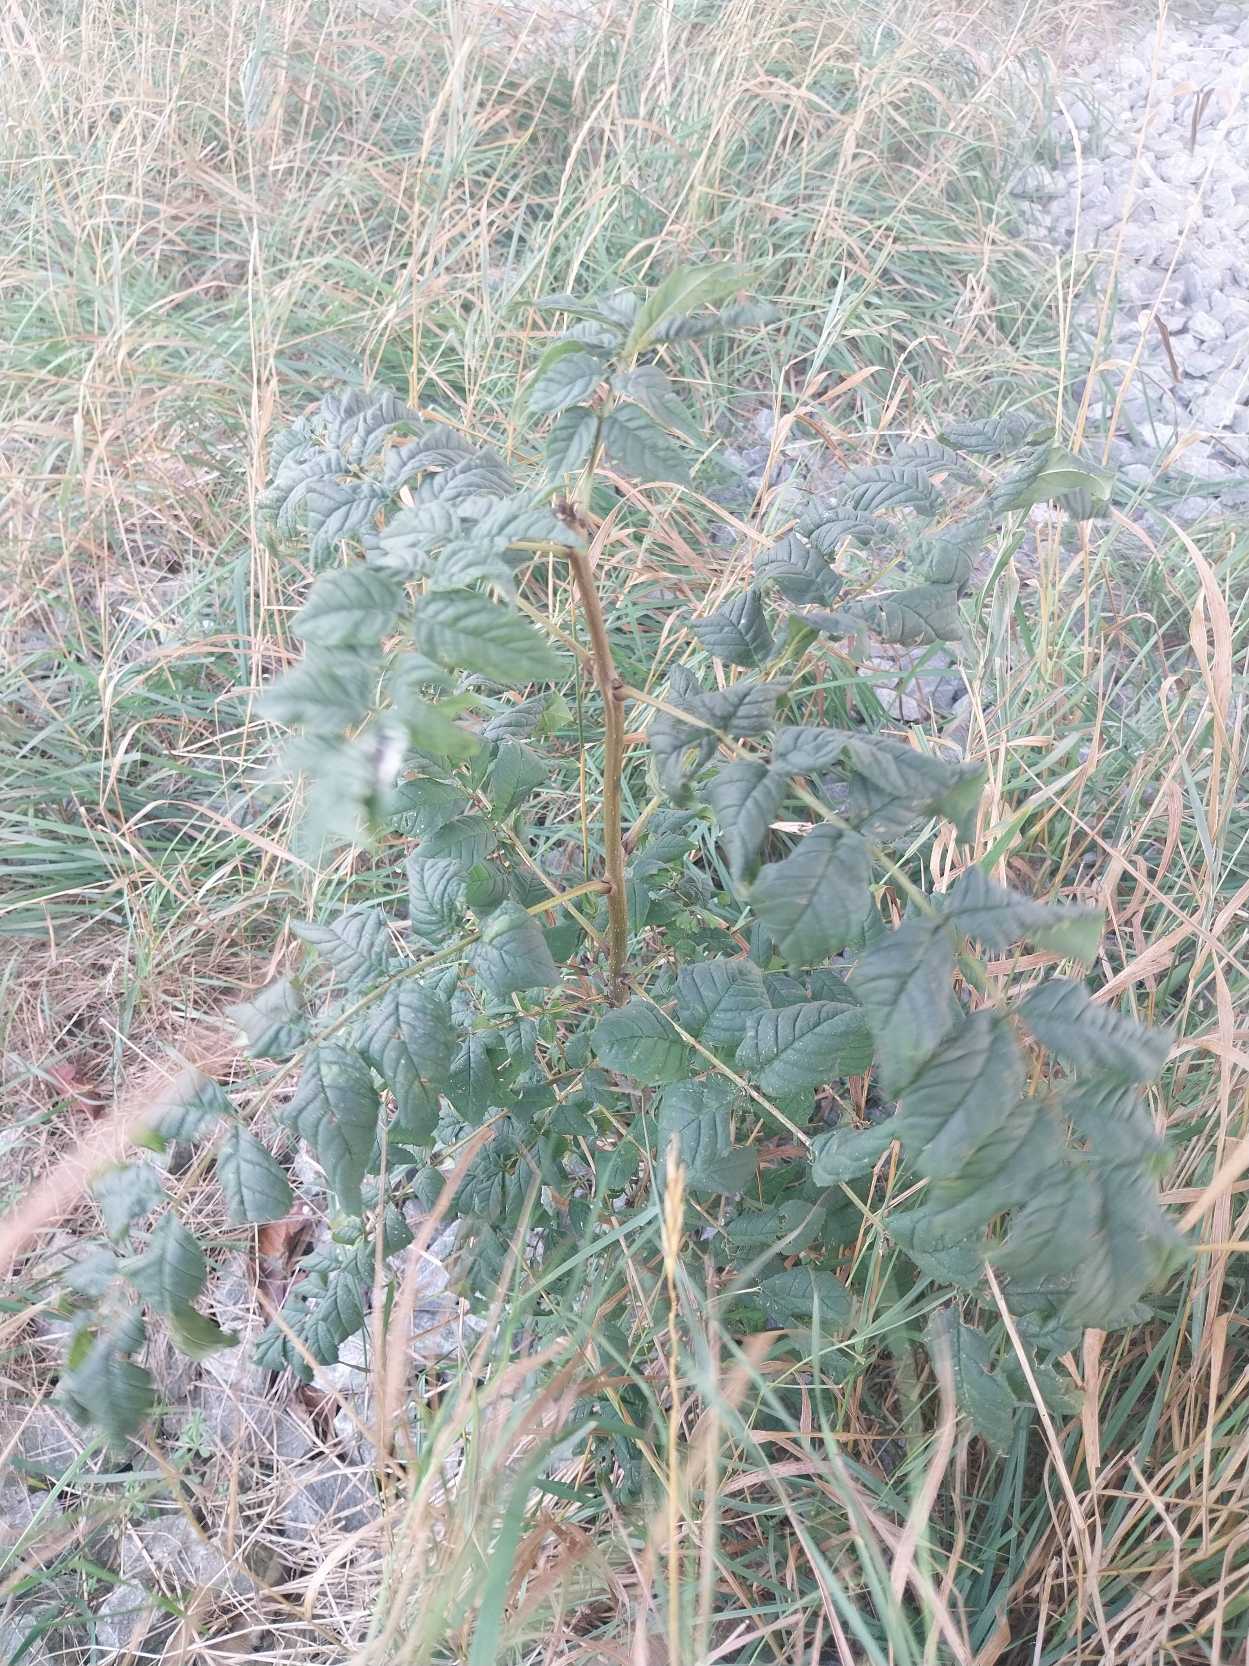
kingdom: Plantae
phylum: Tracheophyta
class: Magnoliopsida
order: Lamiales
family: Oleaceae
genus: Fraxinus
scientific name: Fraxinus excelsior
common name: Ask
